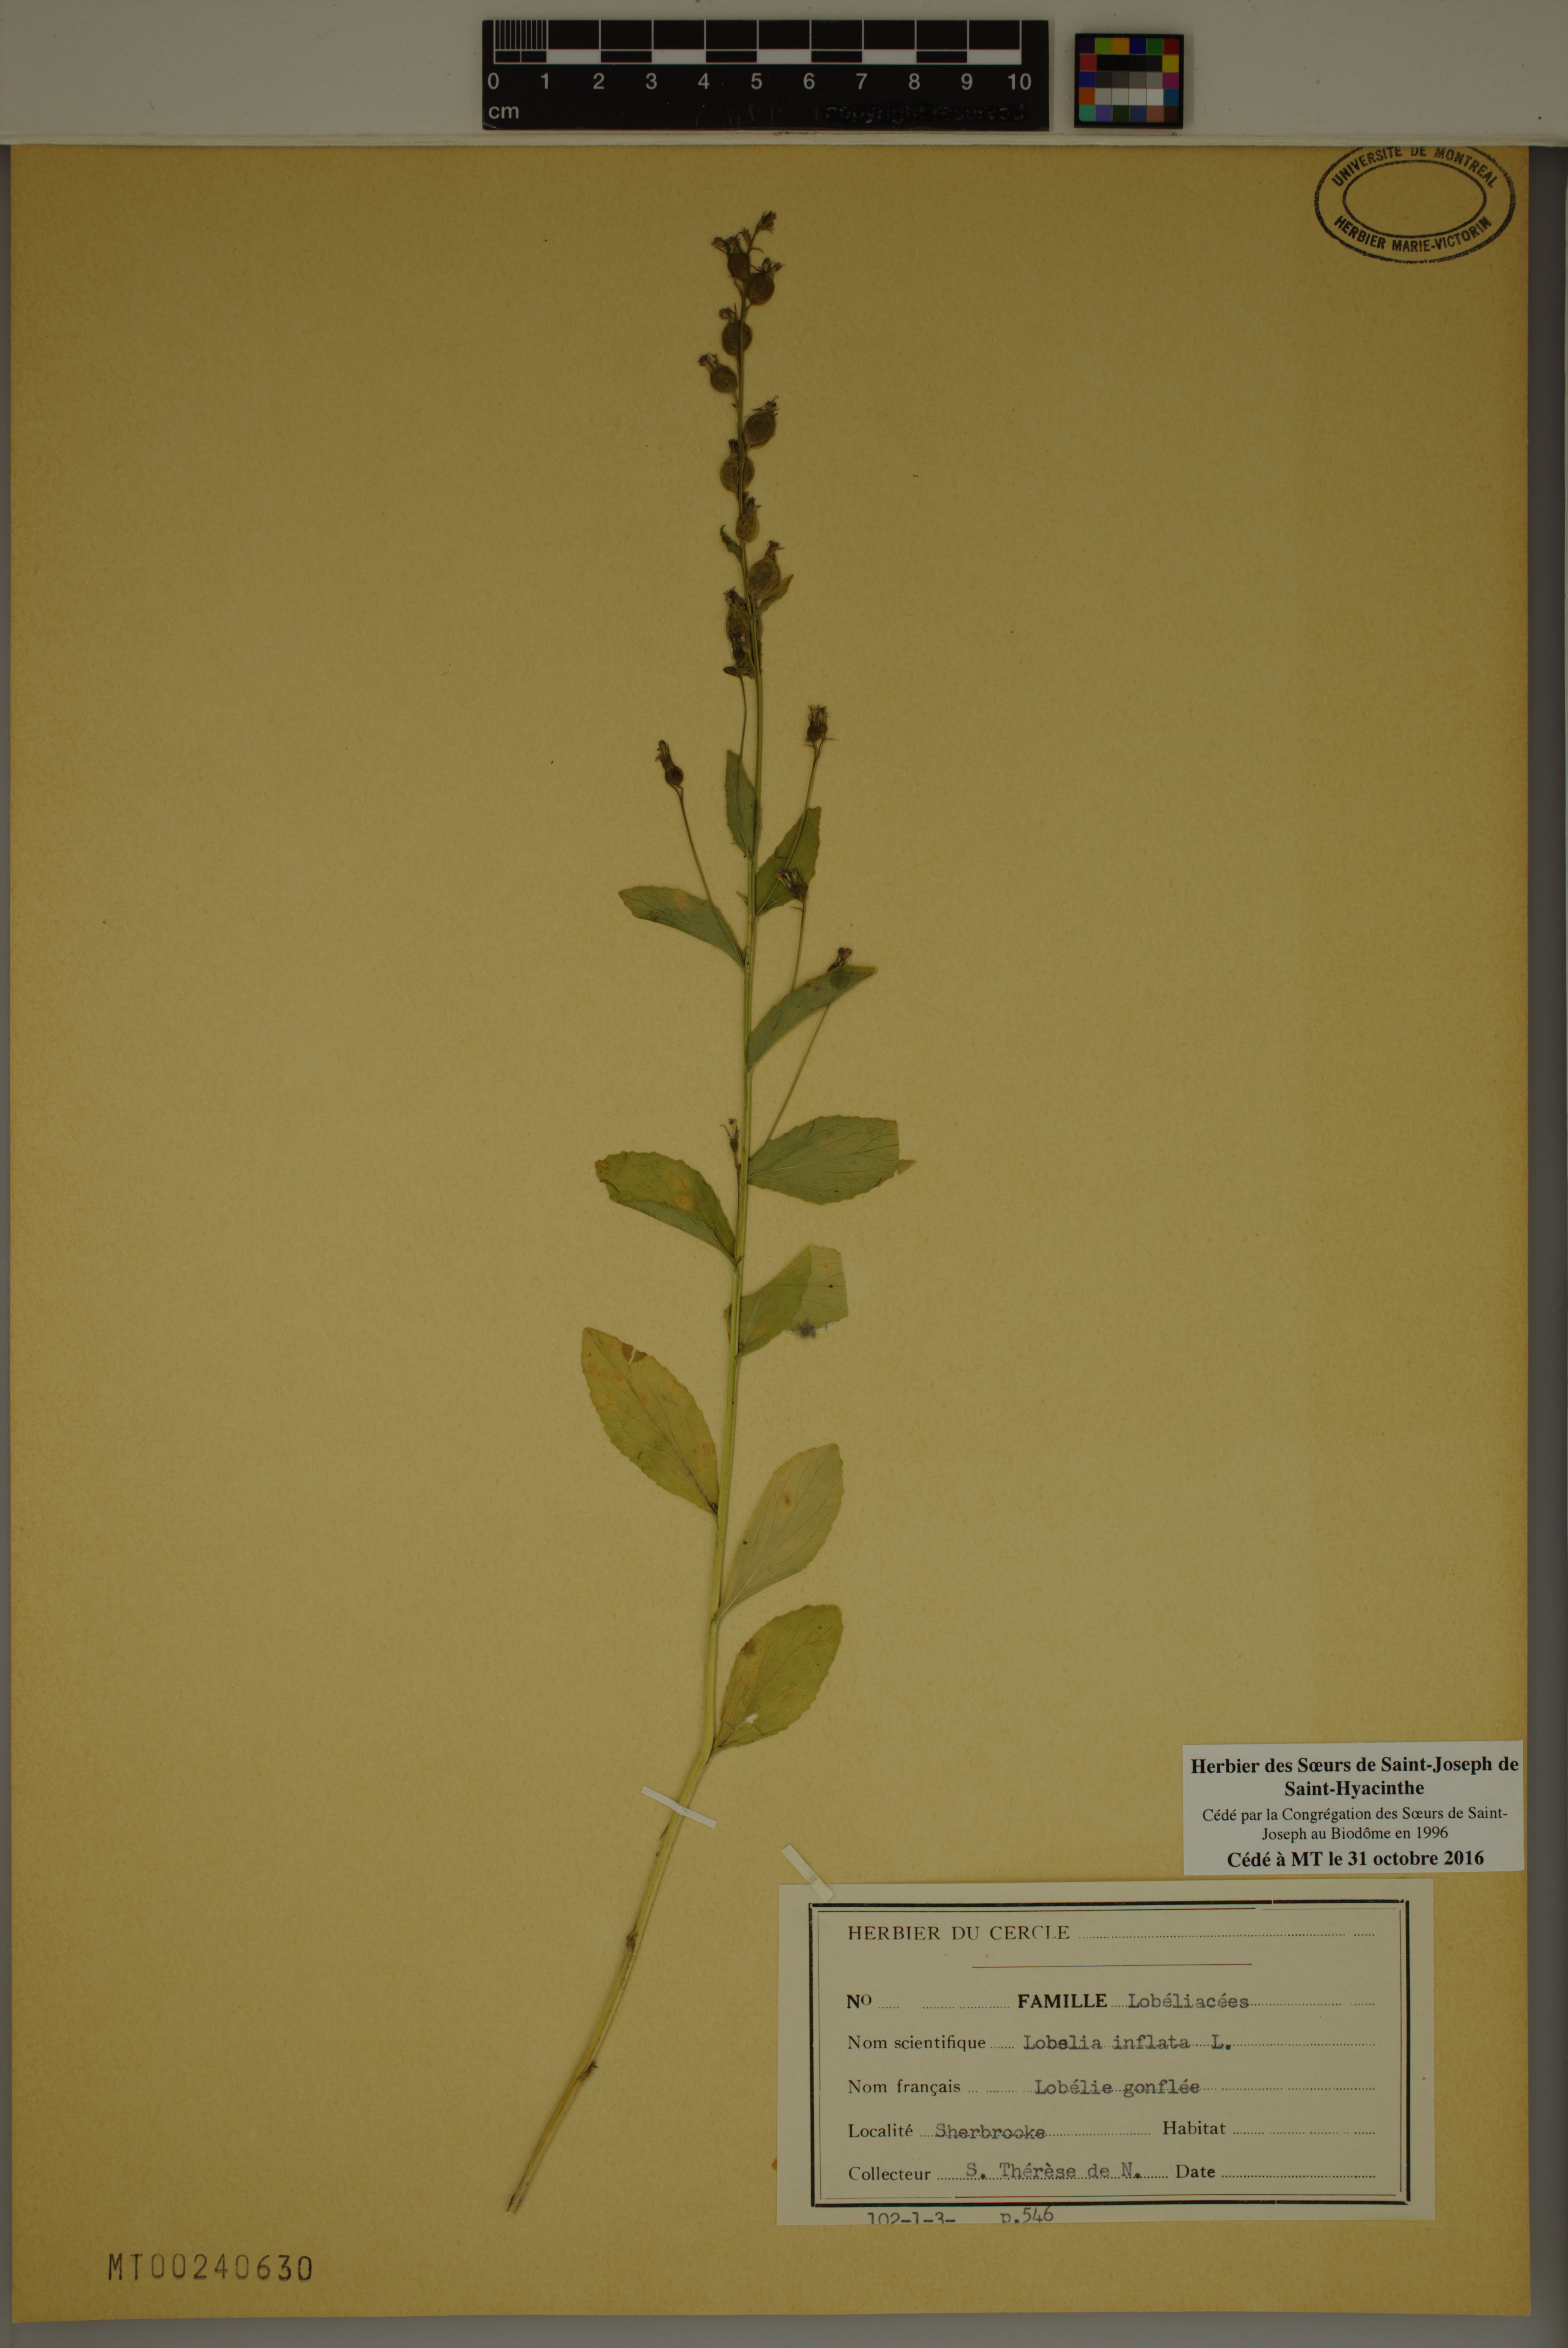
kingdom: Plantae
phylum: Tracheophyta
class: Magnoliopsida
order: Asterales
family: Campanulaceae
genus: Lobelia
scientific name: Lobelia inflata
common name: Indian tobacco
